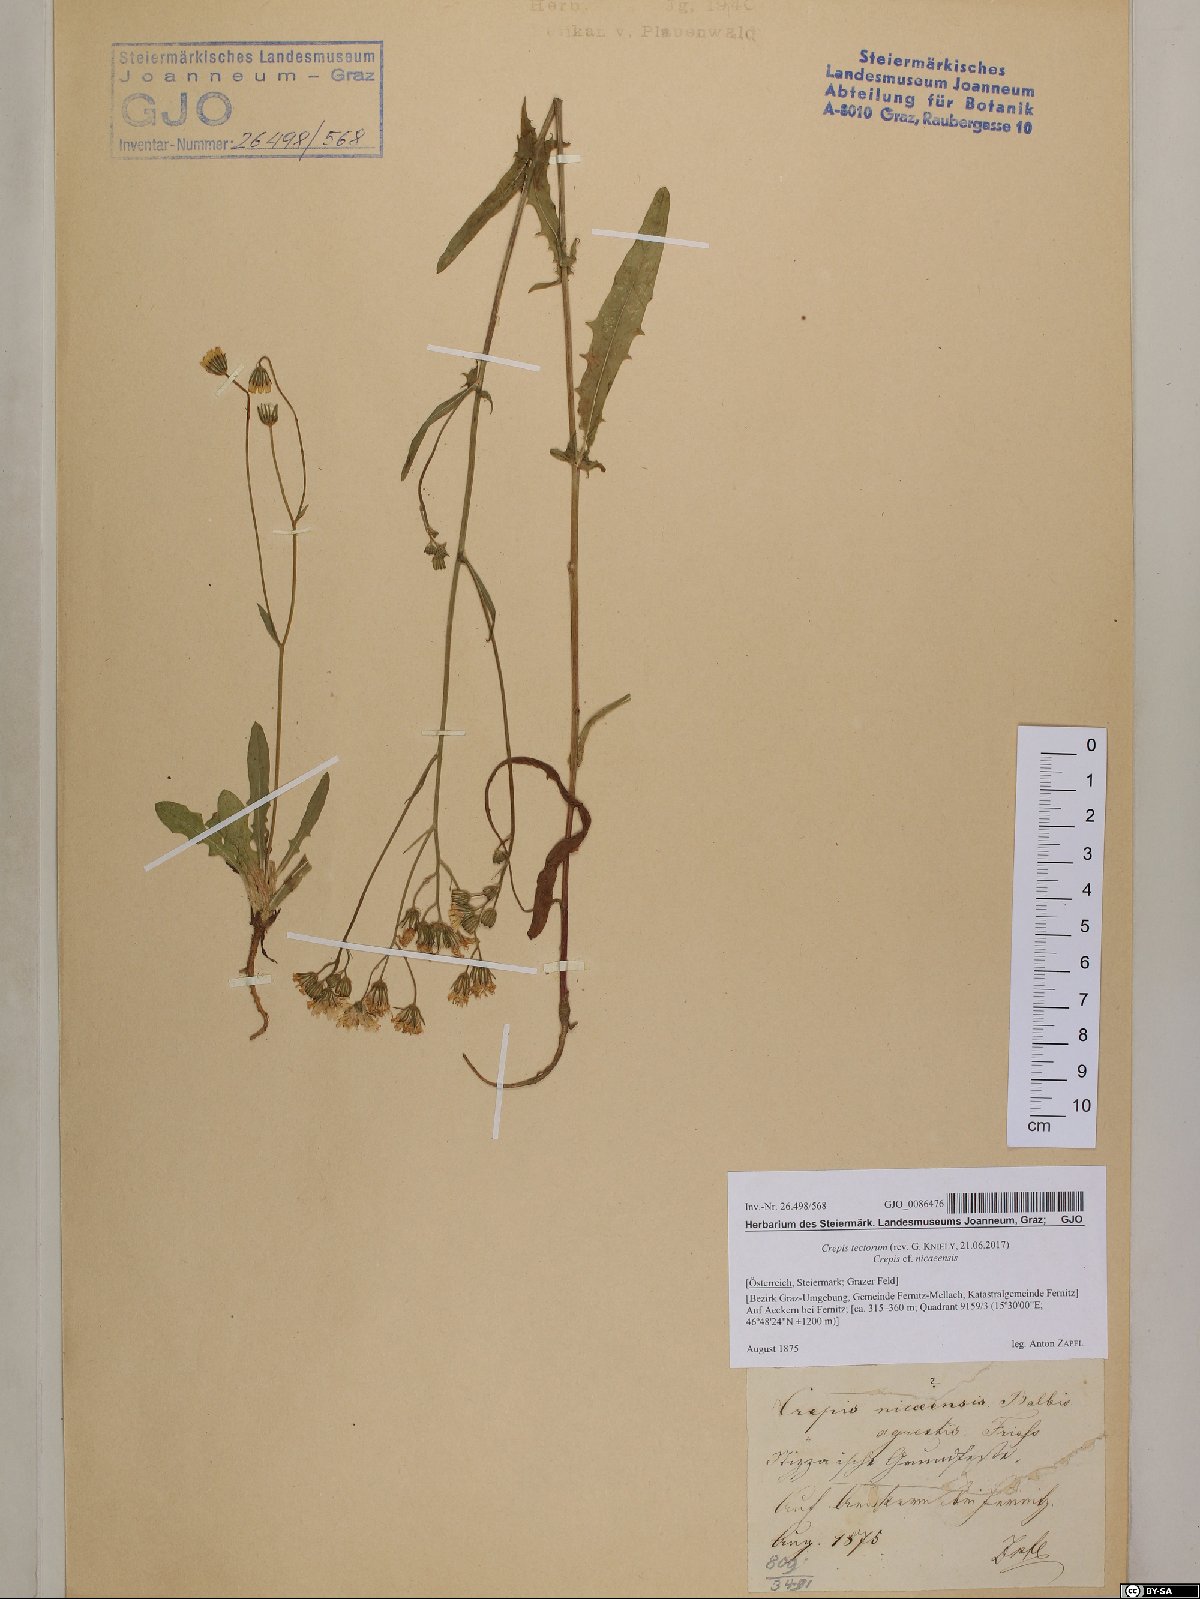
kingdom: Plantae
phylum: Tracheophyta
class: Magnoliopsida
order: Asterales
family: Asteraceae
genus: Crepis
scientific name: Crepis tectorum
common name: Narrow-leaved hawk's-beard
